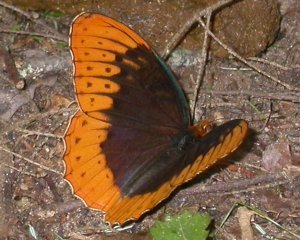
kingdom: Animalia
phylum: Arthropoda
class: Insecta
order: Lepidoptera
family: Nymphalidae
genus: Speyeria
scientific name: Speyeria diana
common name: Diana Fritillary
